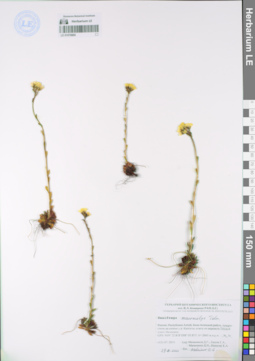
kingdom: Plantae
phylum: Tracheophyta
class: Magnoliopsida
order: Saxifragales
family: Saxifragaceae
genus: Saxifraga
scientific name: Saxifraga flagellaris
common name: Spider saxifrage
